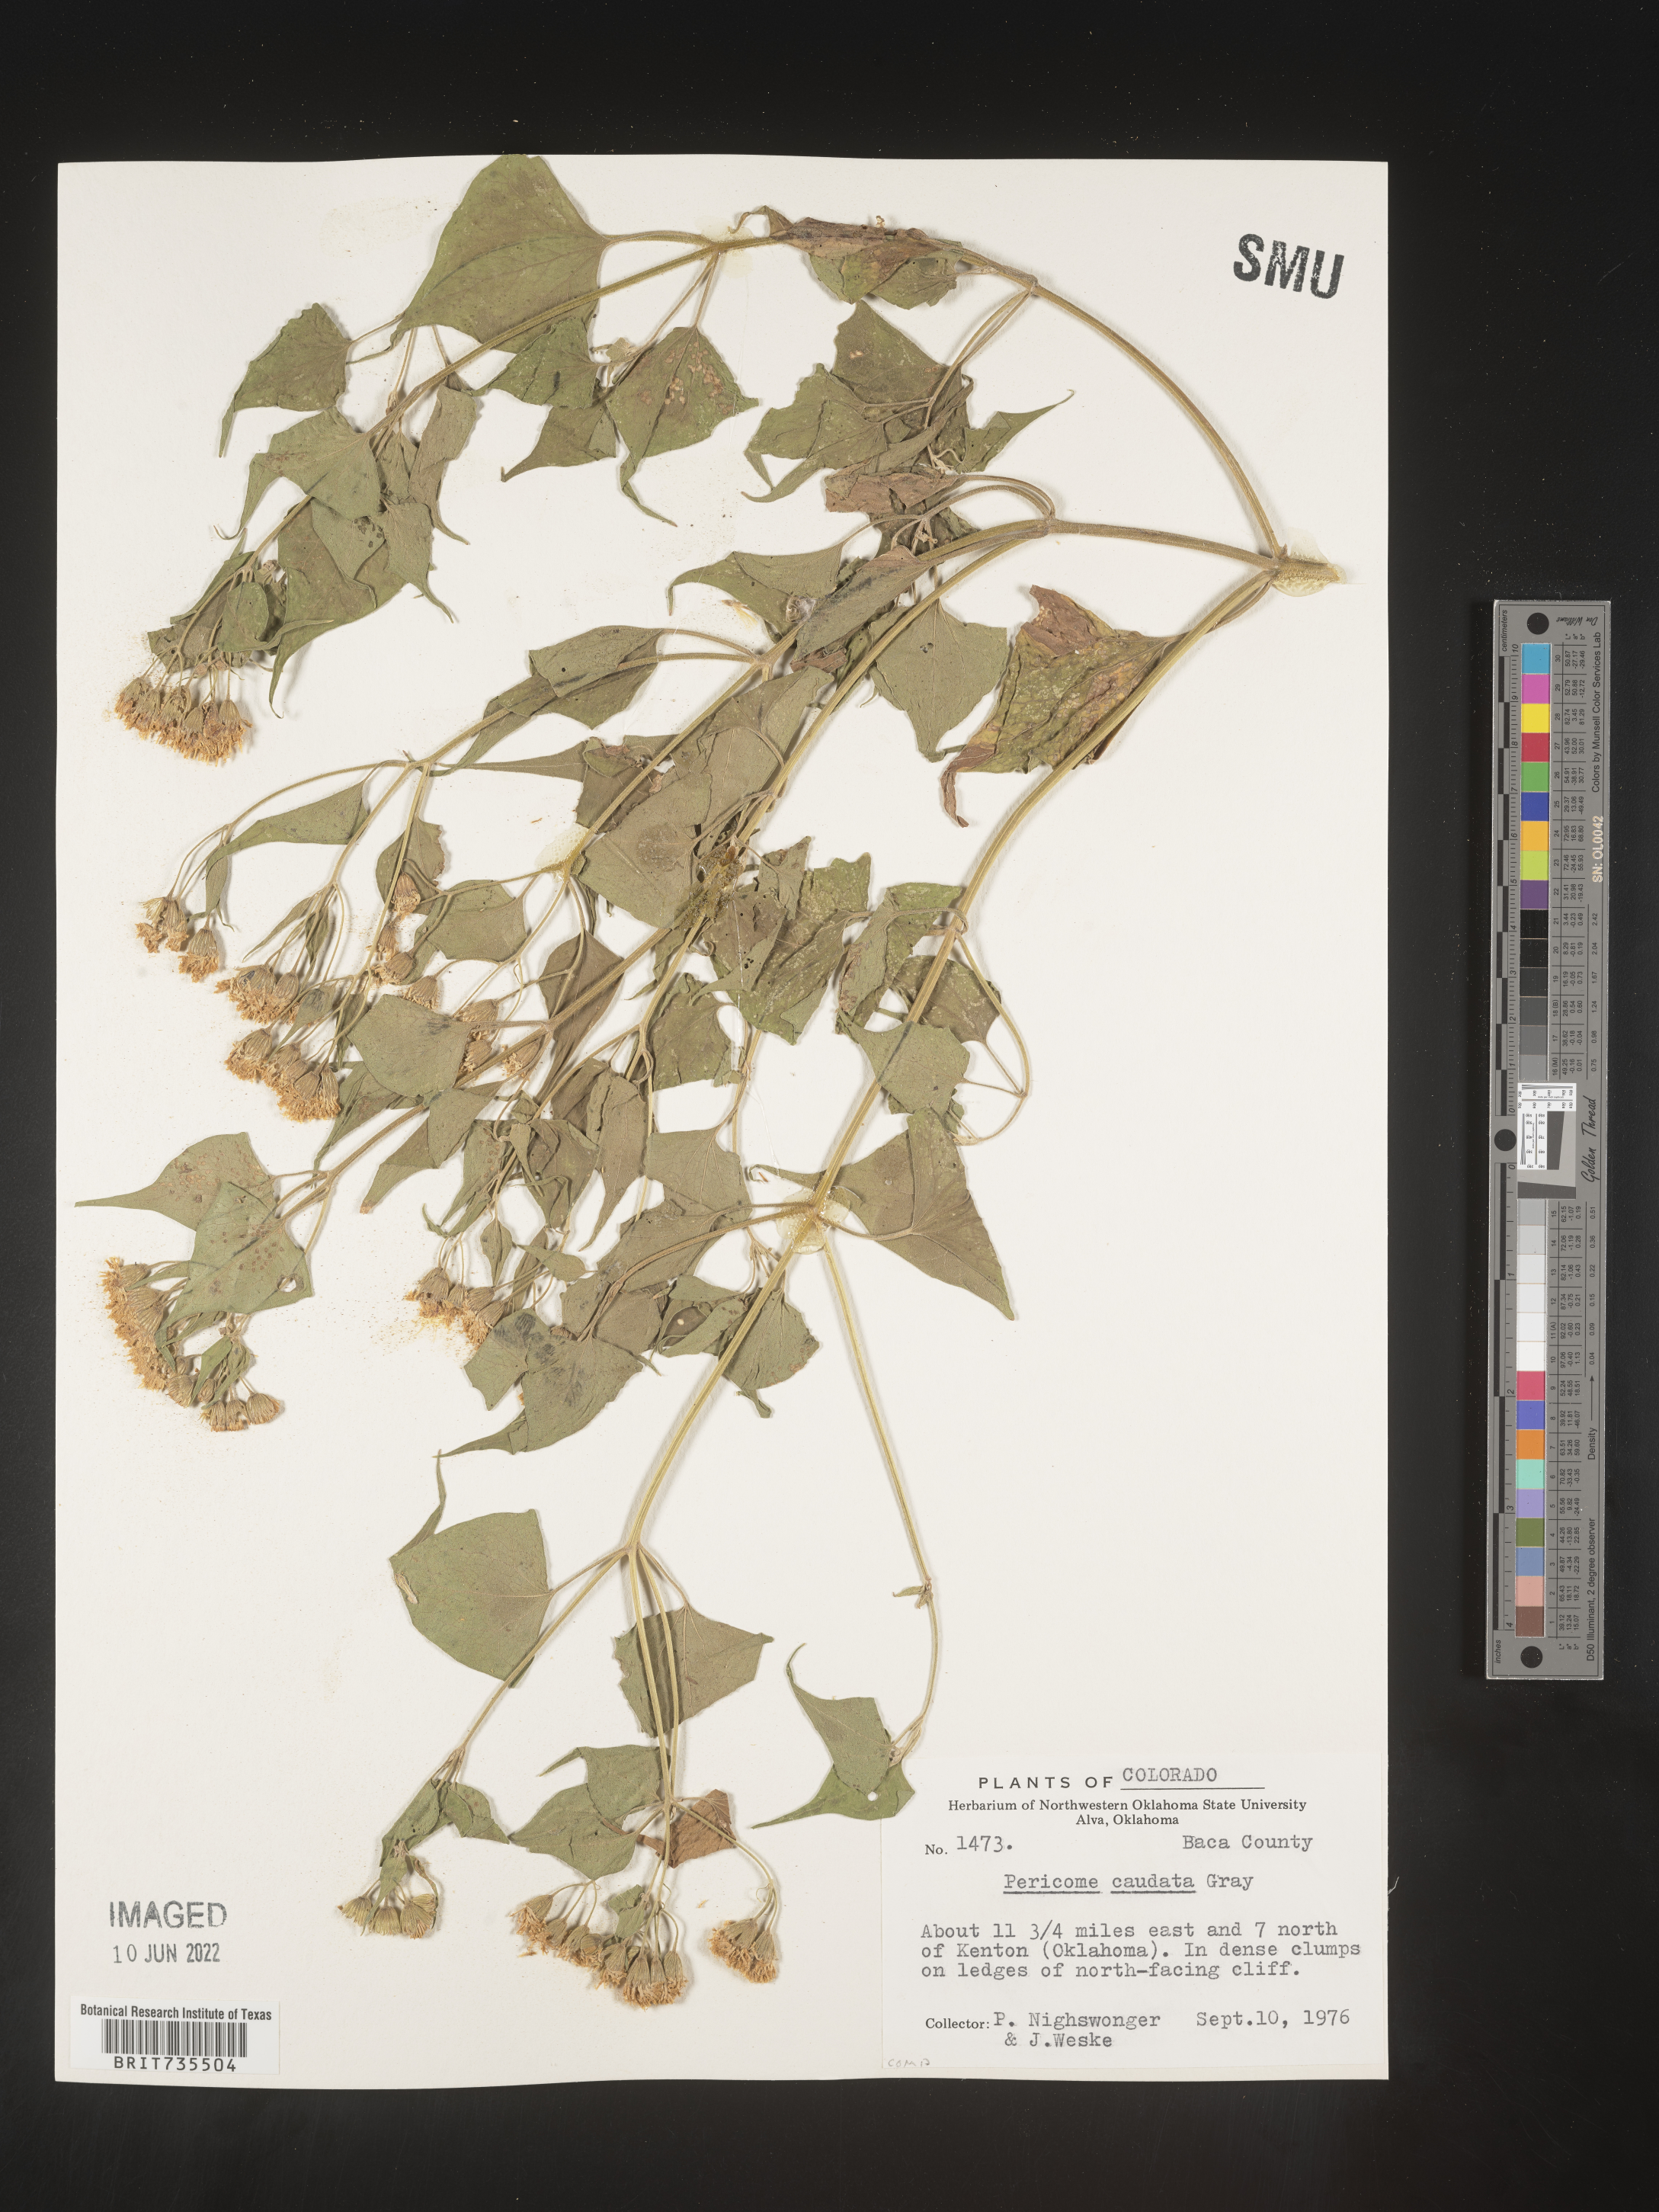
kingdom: Plantae
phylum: Tracheophyta
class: Magnoliopsida
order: Asterales
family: Asteraceae
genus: Pericome
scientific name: Pericome
